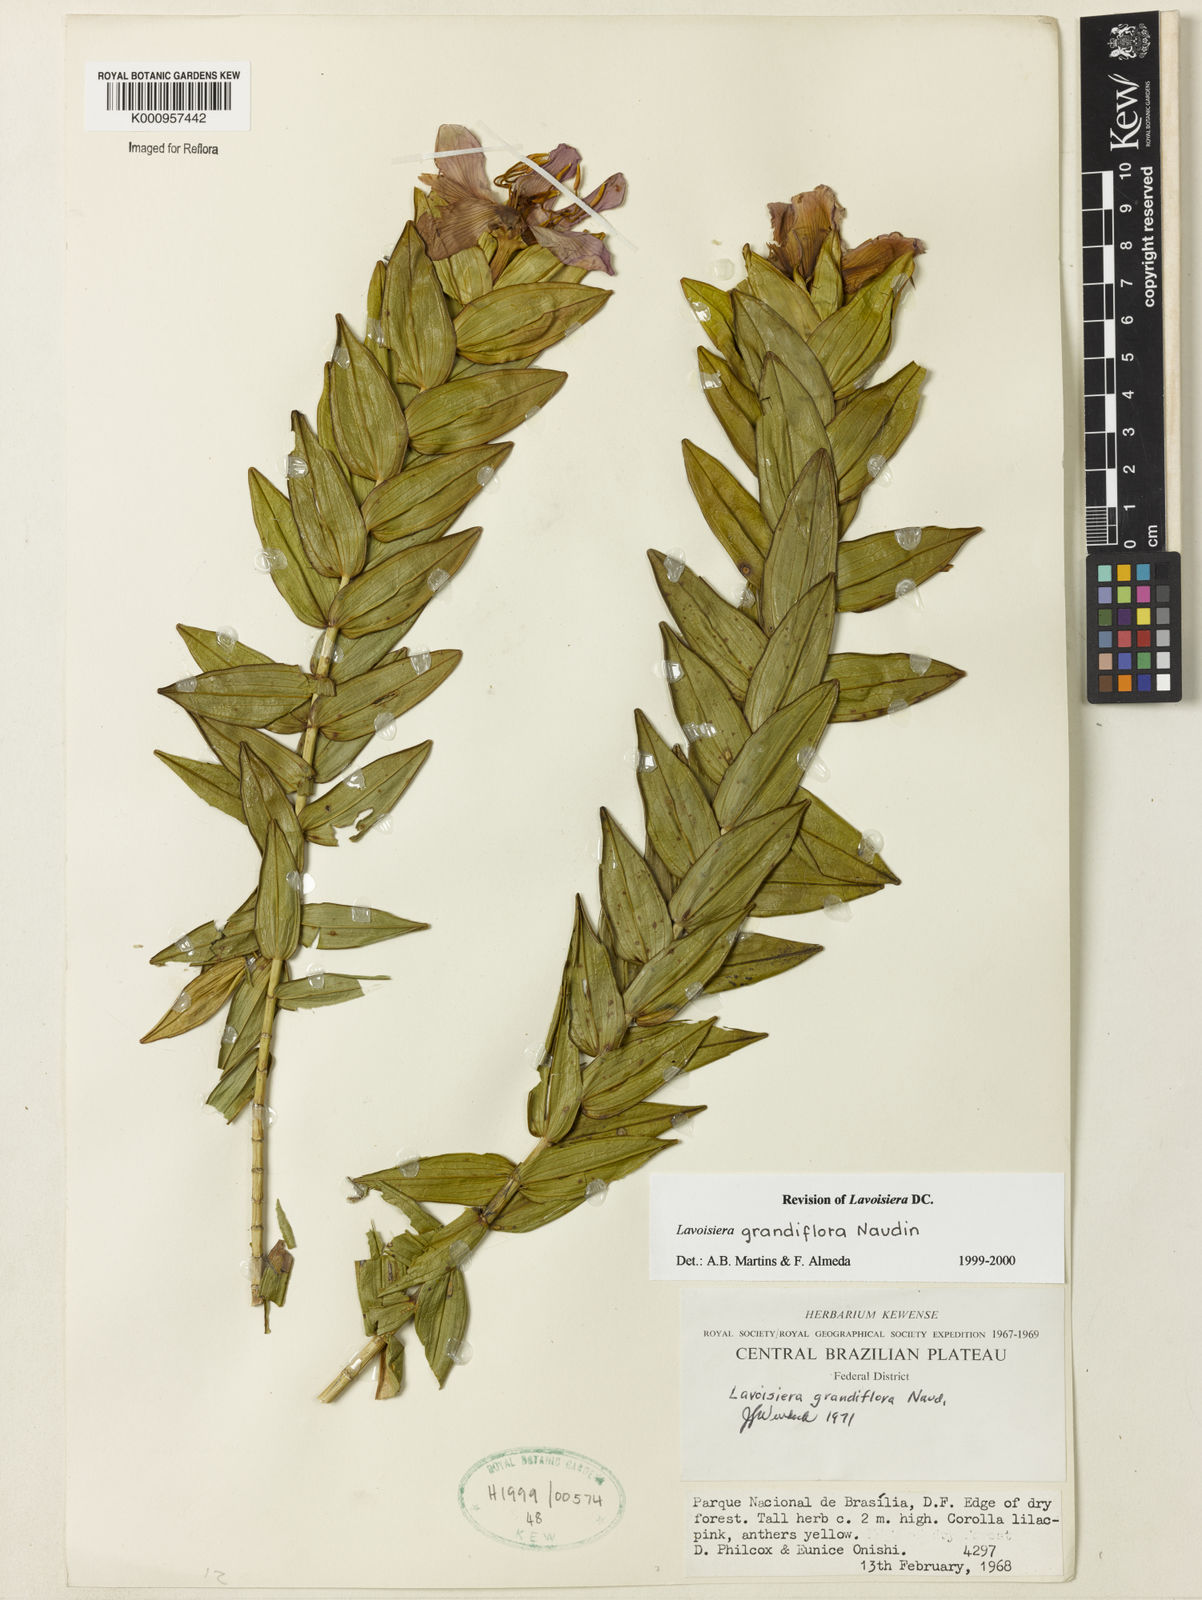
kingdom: Plantae
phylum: Tracheophyta
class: Magnoliopsida
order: Myrtales
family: Melastomataceae
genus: Microlicia
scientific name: Microlicia macrantha
